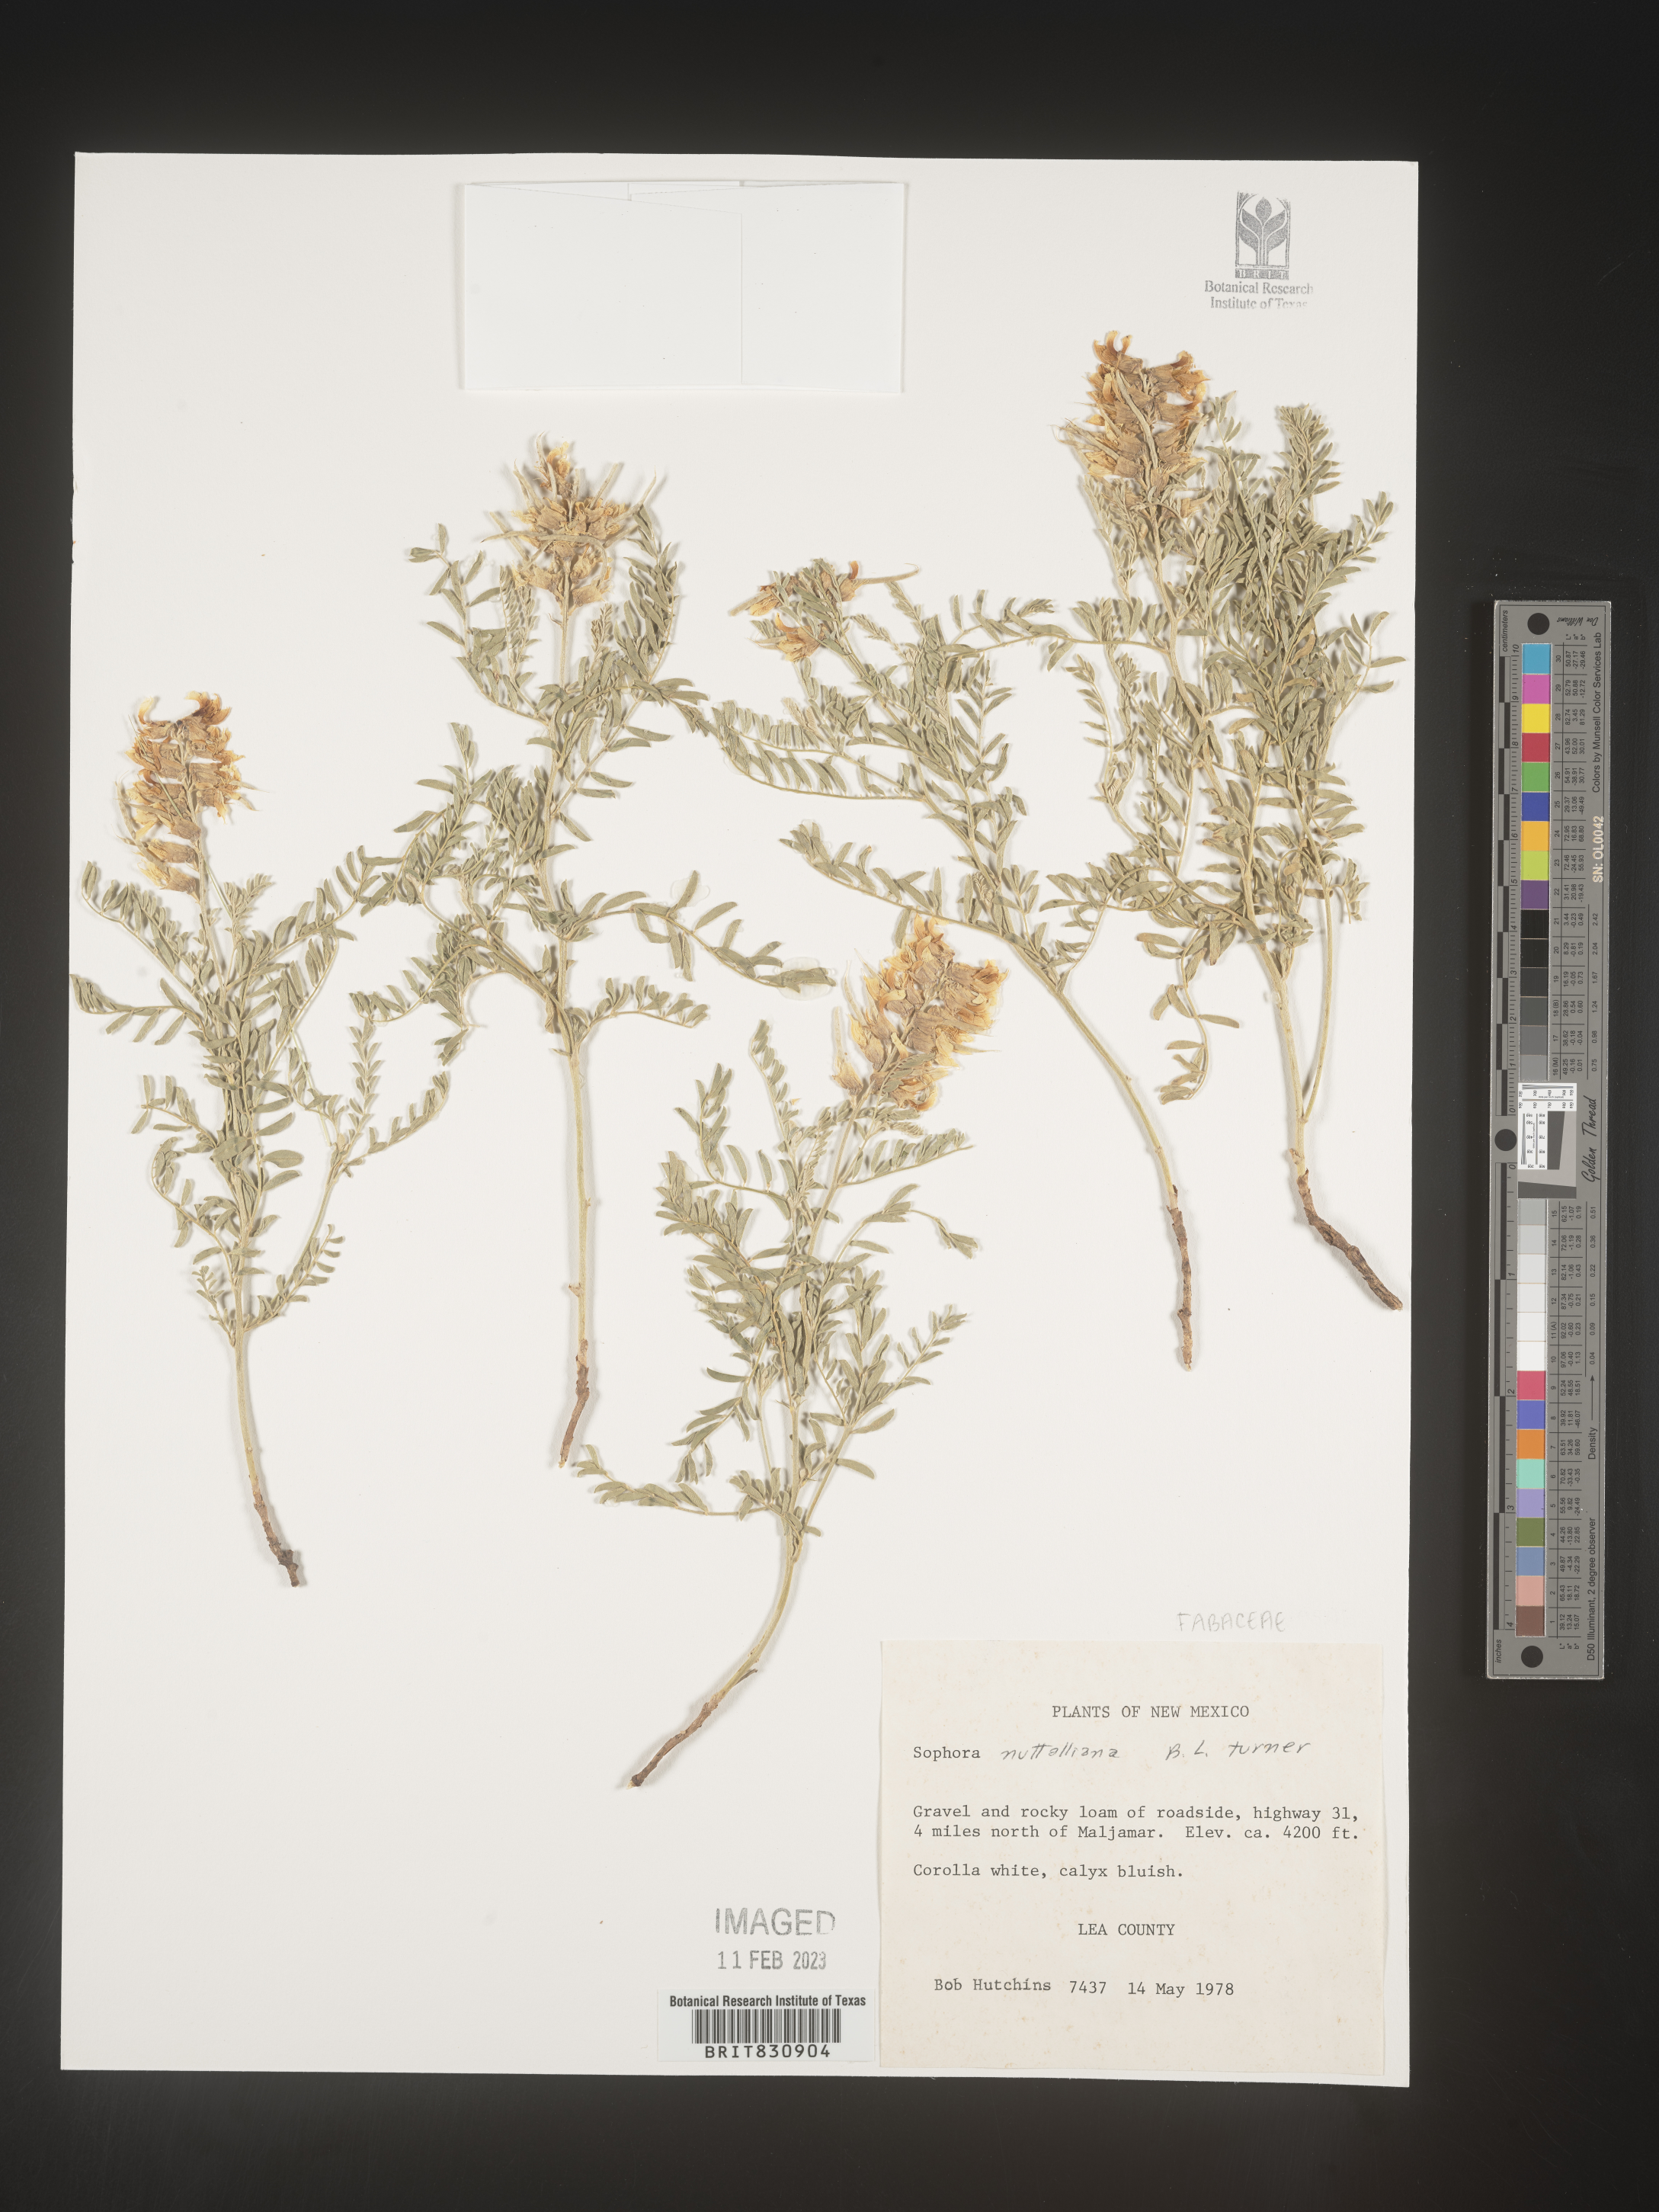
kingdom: Plantae
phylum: Tracheophyta
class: Magnoliopsida
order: Fabales
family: Fabaceae
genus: Sophora
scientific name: Sophora nuttalliana
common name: Silky sophora
